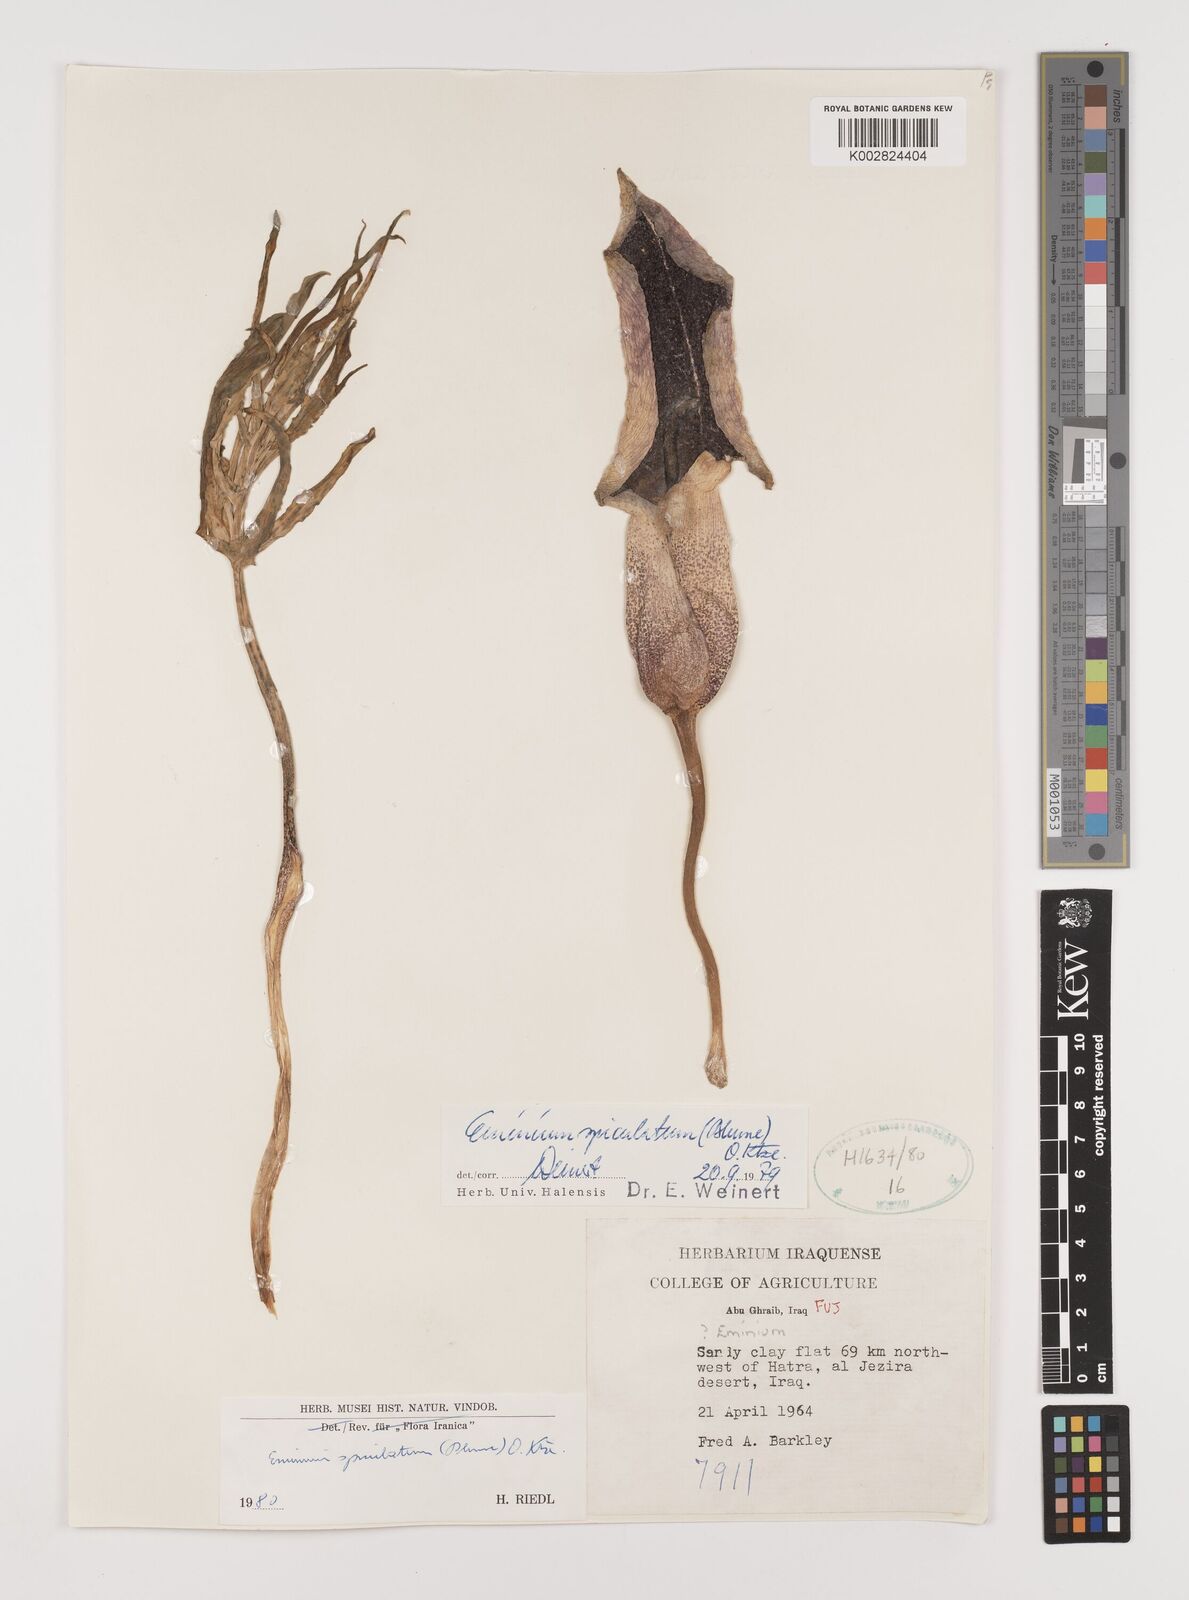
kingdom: Plantae
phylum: Tracheophyta
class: Liliopsida
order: Alismatales
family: Araceae
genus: Eminium
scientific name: Eminium spiculatum
